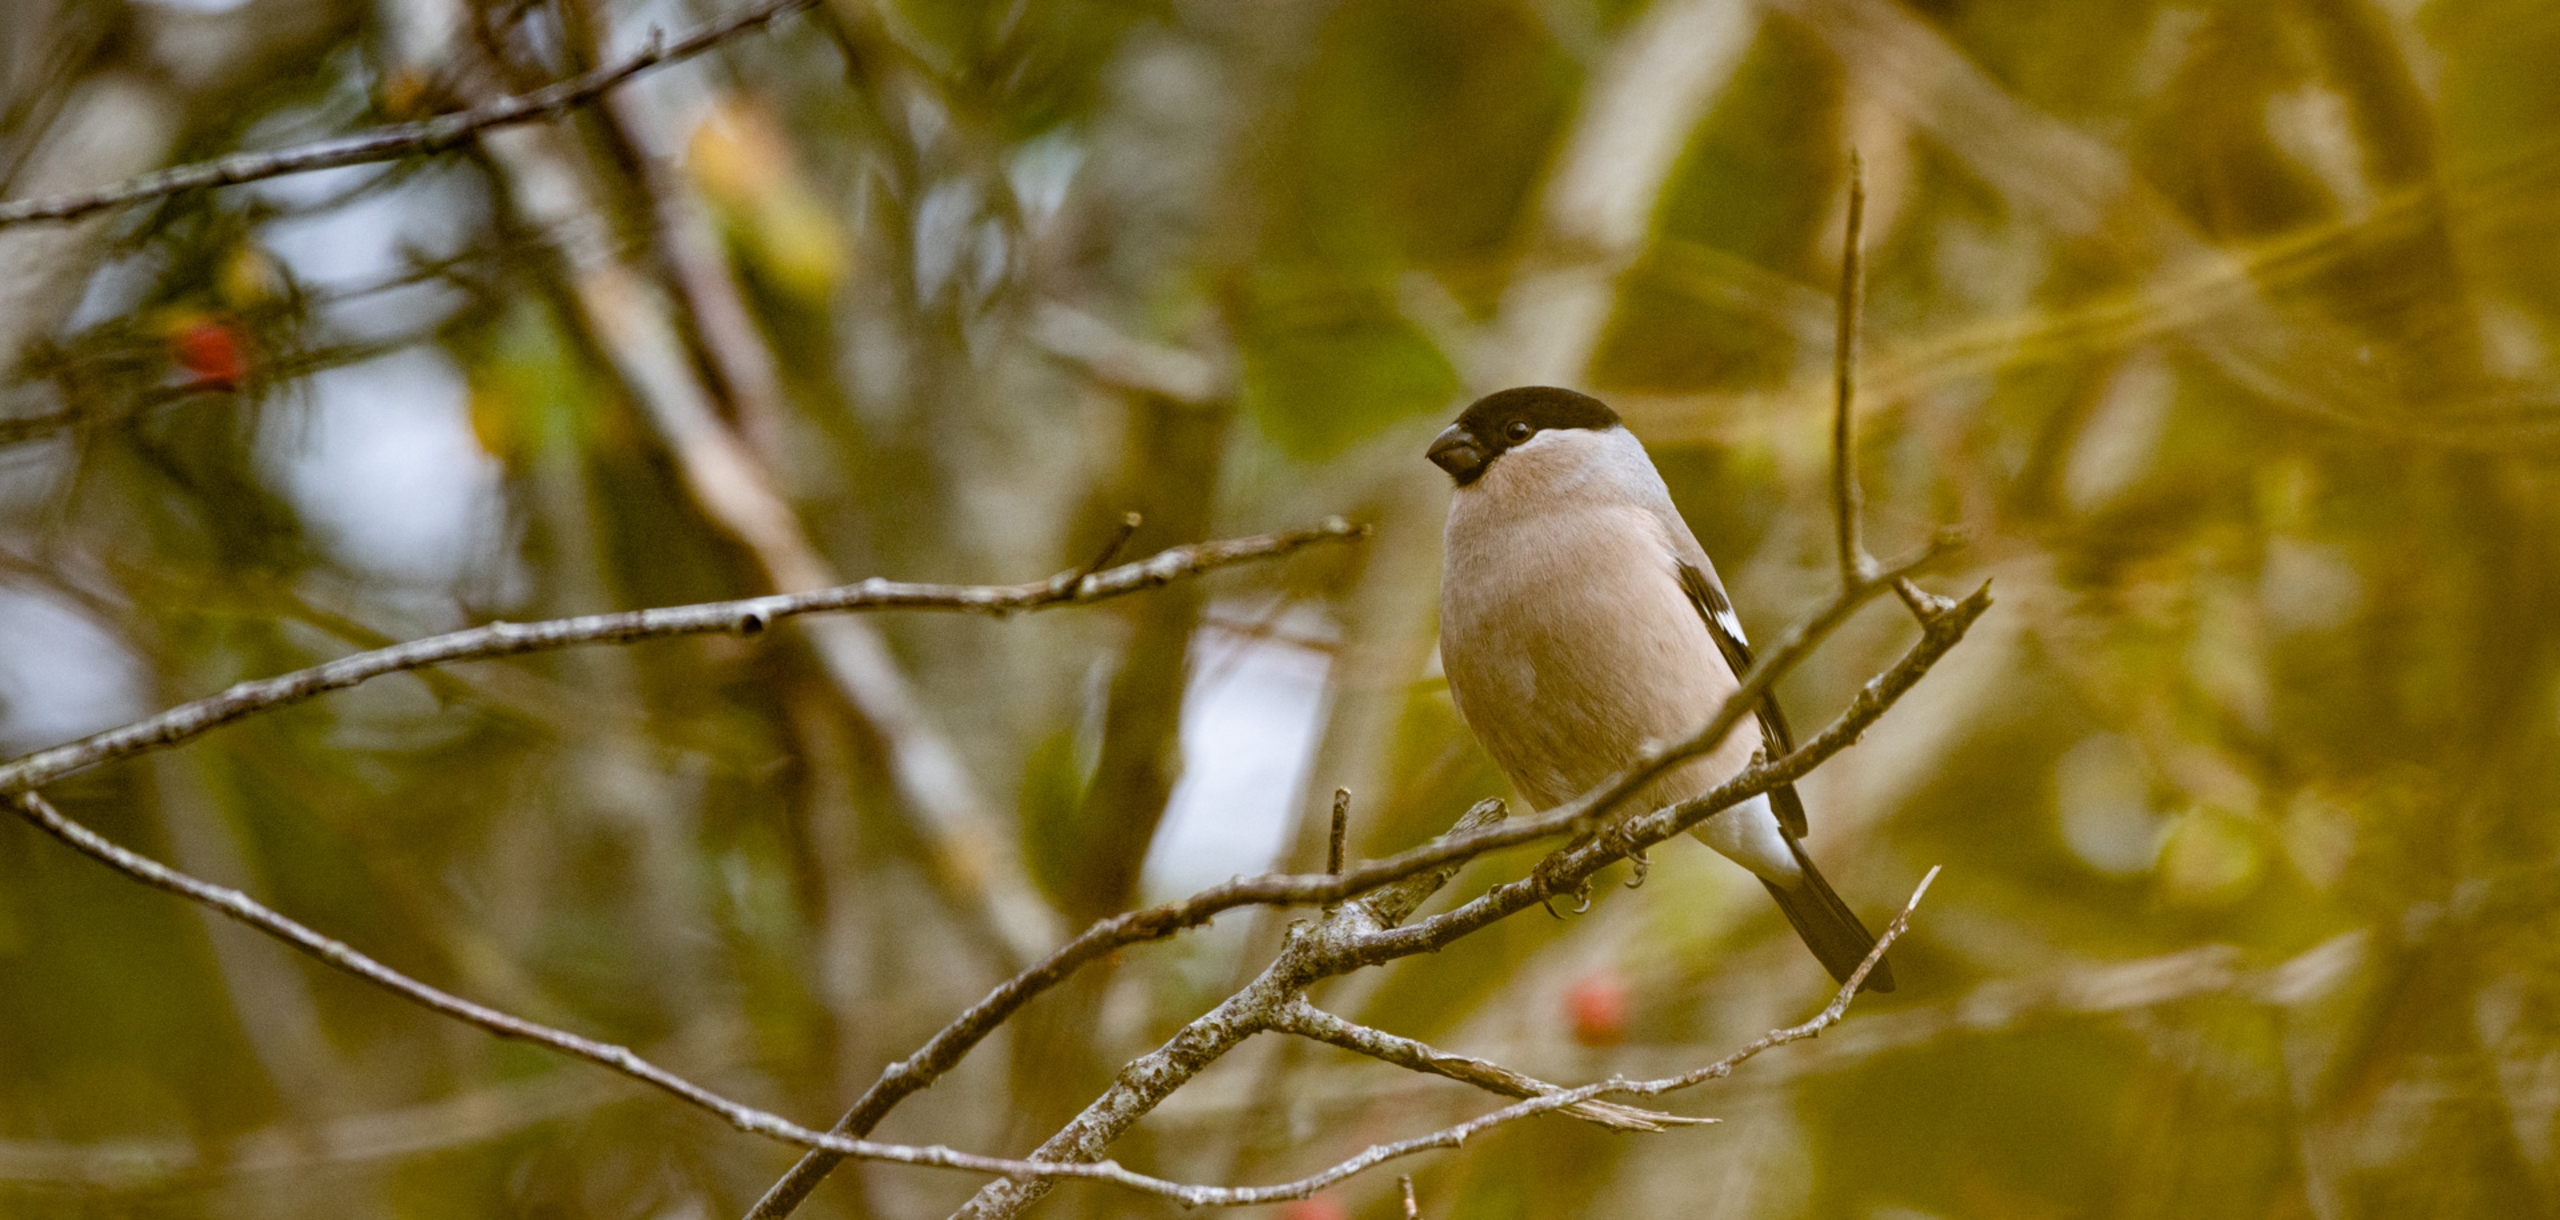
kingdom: Animalia
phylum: Chordata
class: Aves
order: Passeriformes
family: Fringillidae
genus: Pyrrhula
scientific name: Pyrrhula pyrrhula
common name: Dompap
